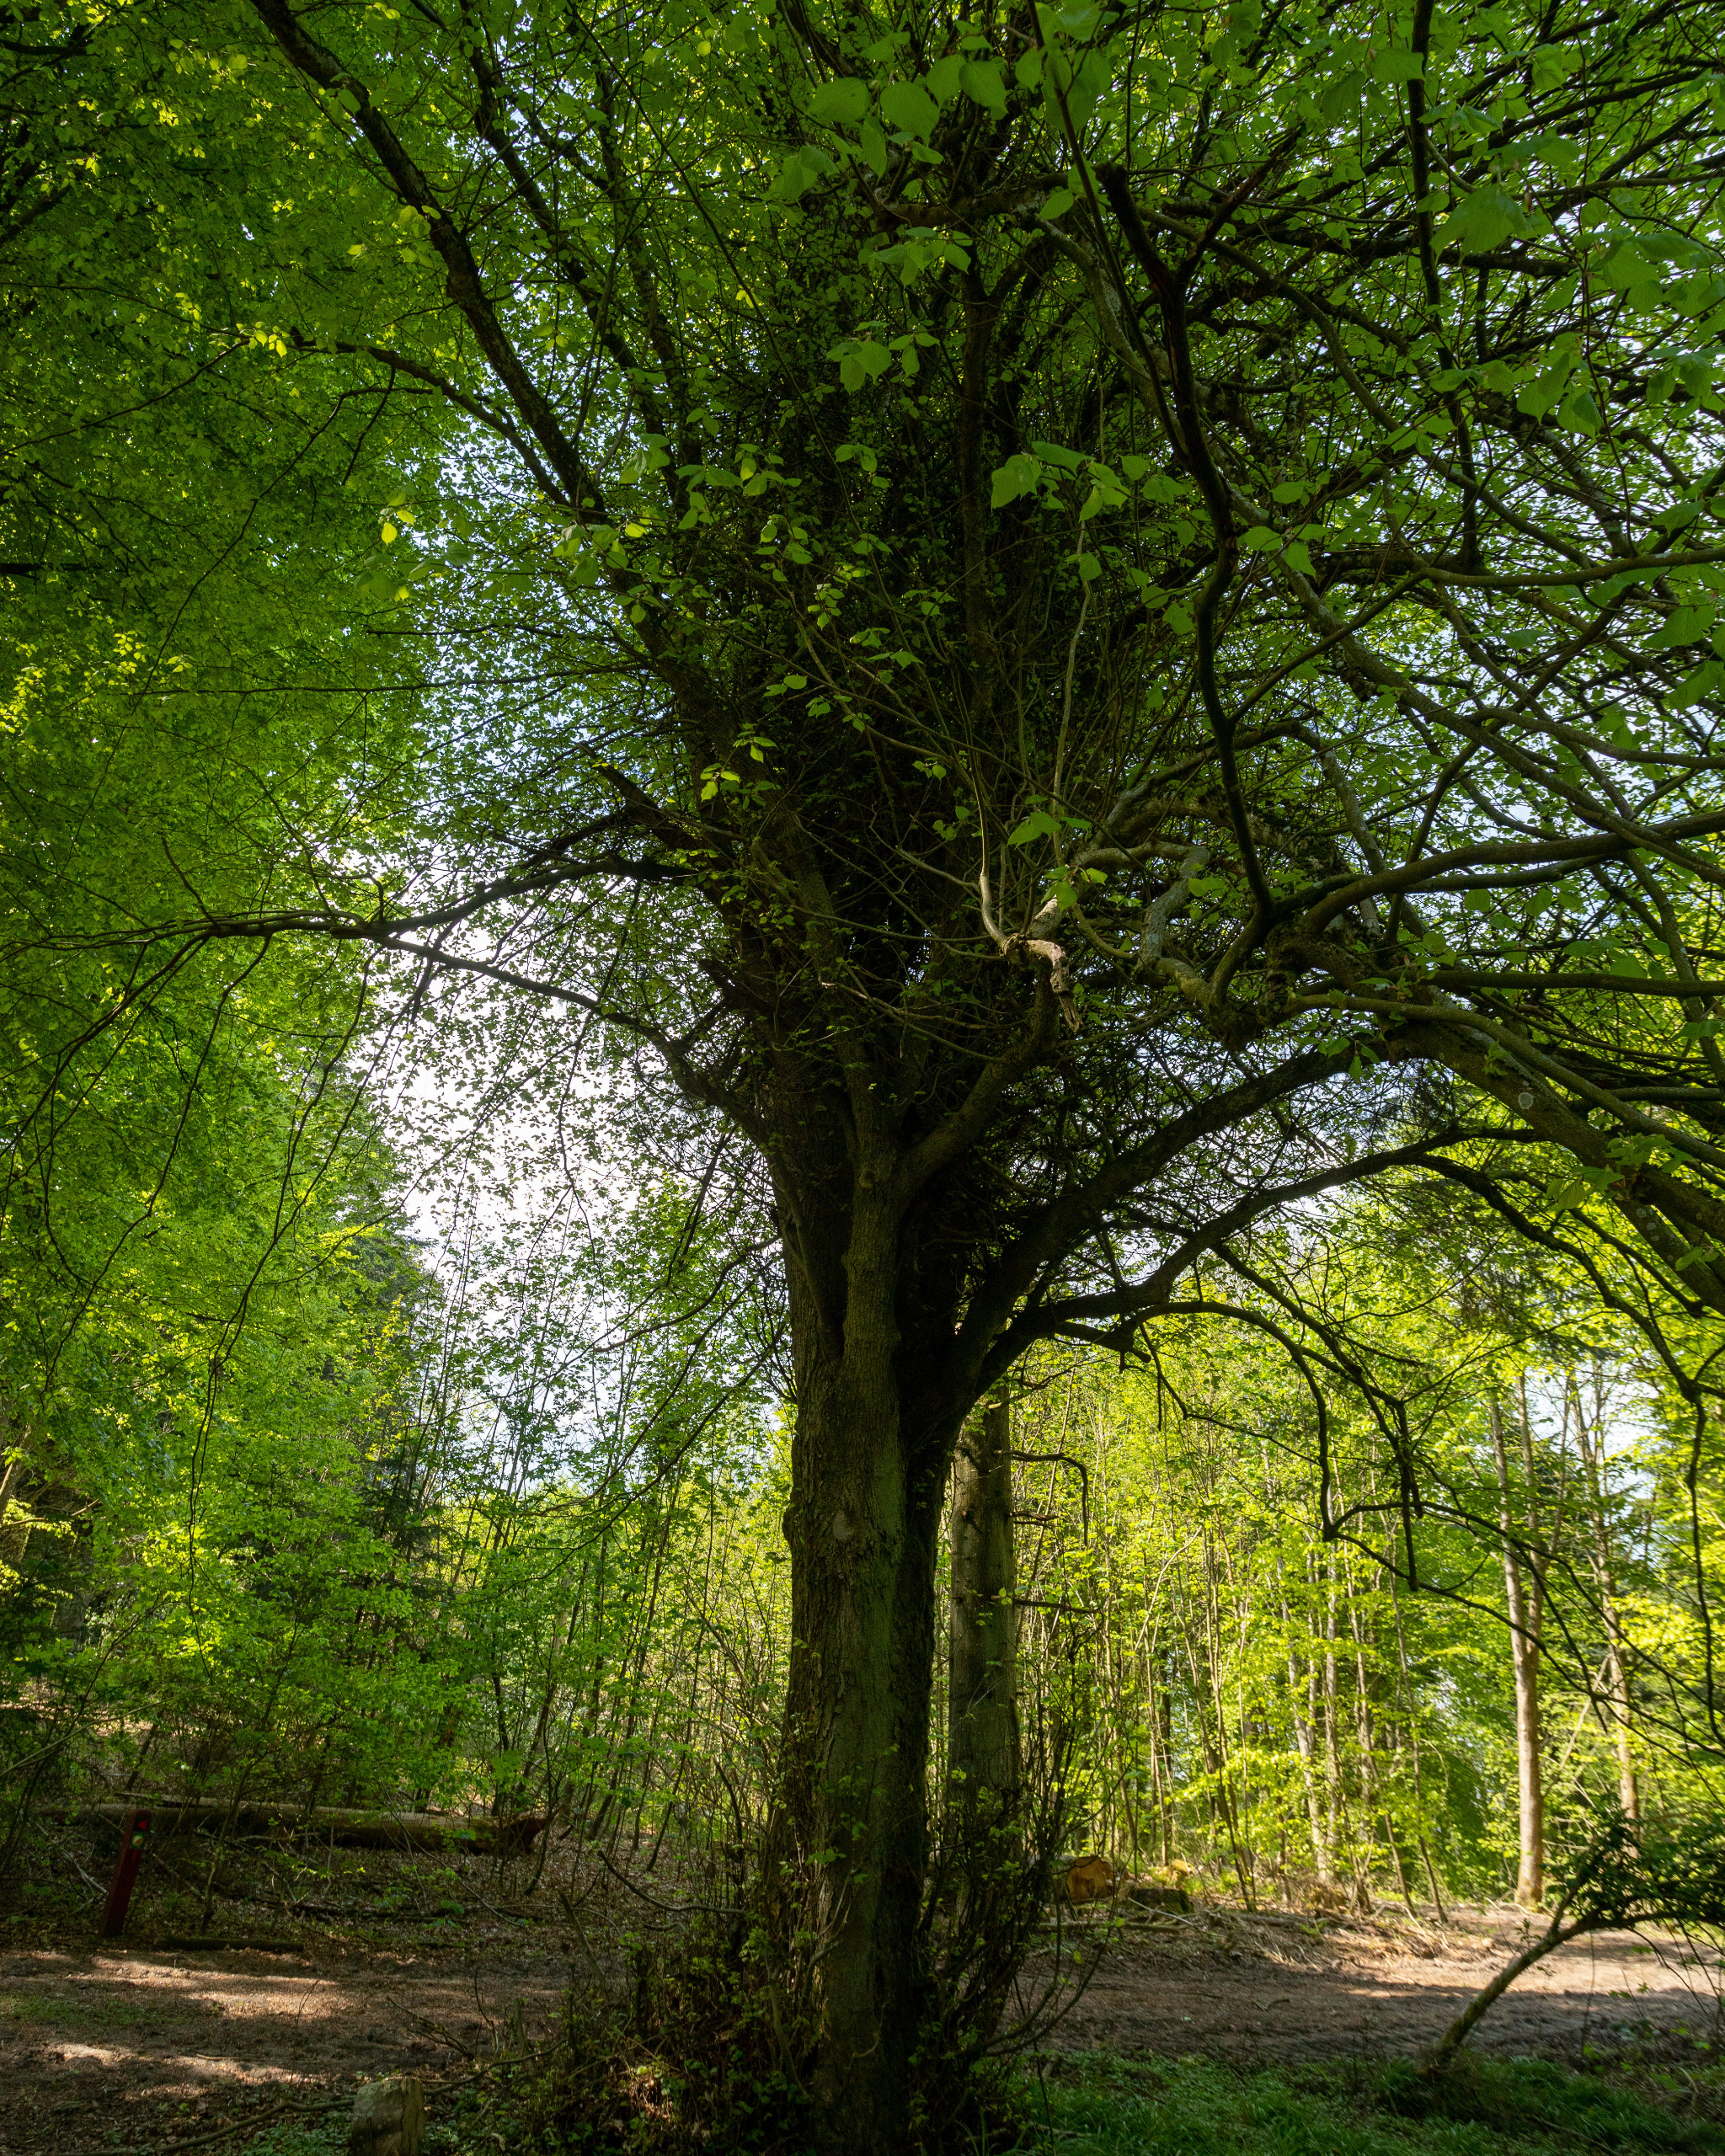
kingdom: Plantae
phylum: Tracheophyta
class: Magnoliopsida
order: Malvales
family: Malvaceae
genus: Tilia
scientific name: Tilia europaea
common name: Park-lind
